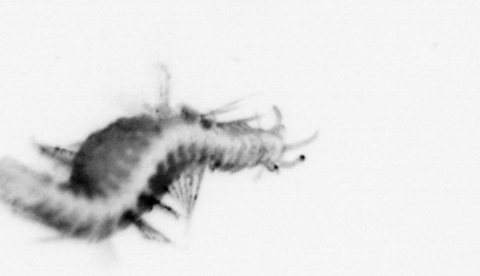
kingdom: Animalia
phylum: Annelida
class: Polychaeta
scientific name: Polychaeta
